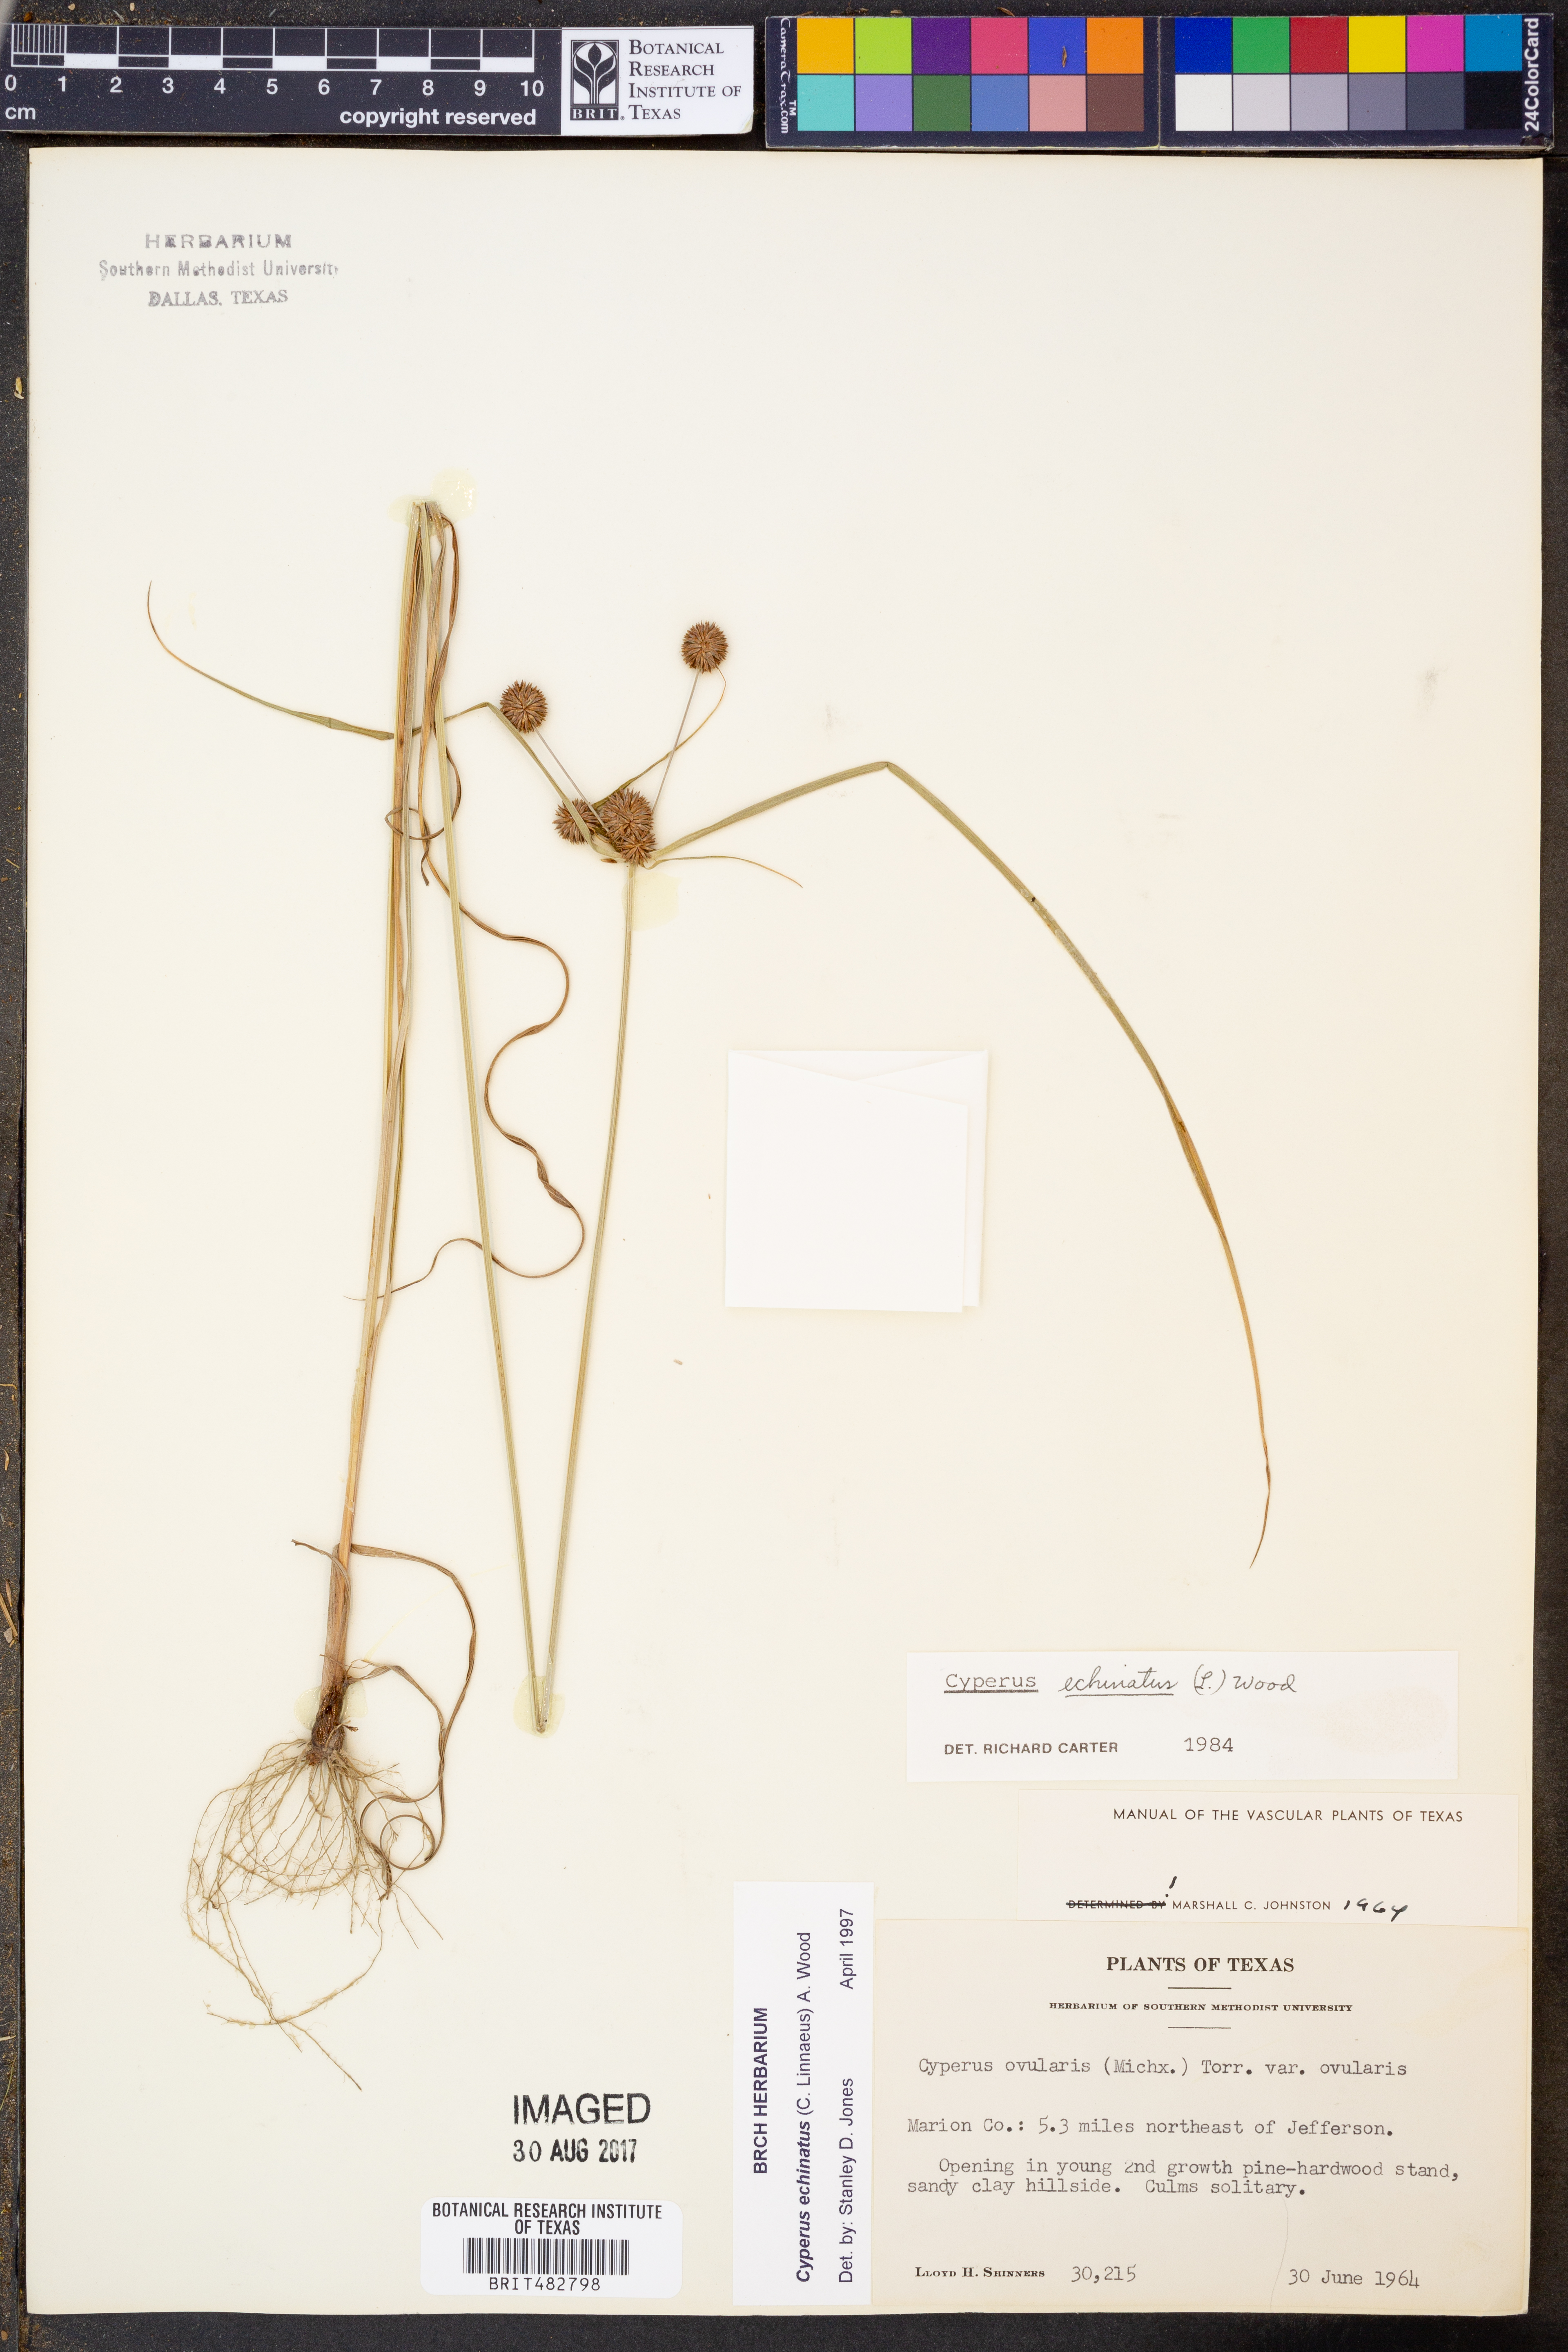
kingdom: Plantae
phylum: Tracheophyta
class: Liliopsida
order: Poales
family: Cyperaceae
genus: Cyperus
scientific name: Cyperus echinatus
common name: Teasel sedge
